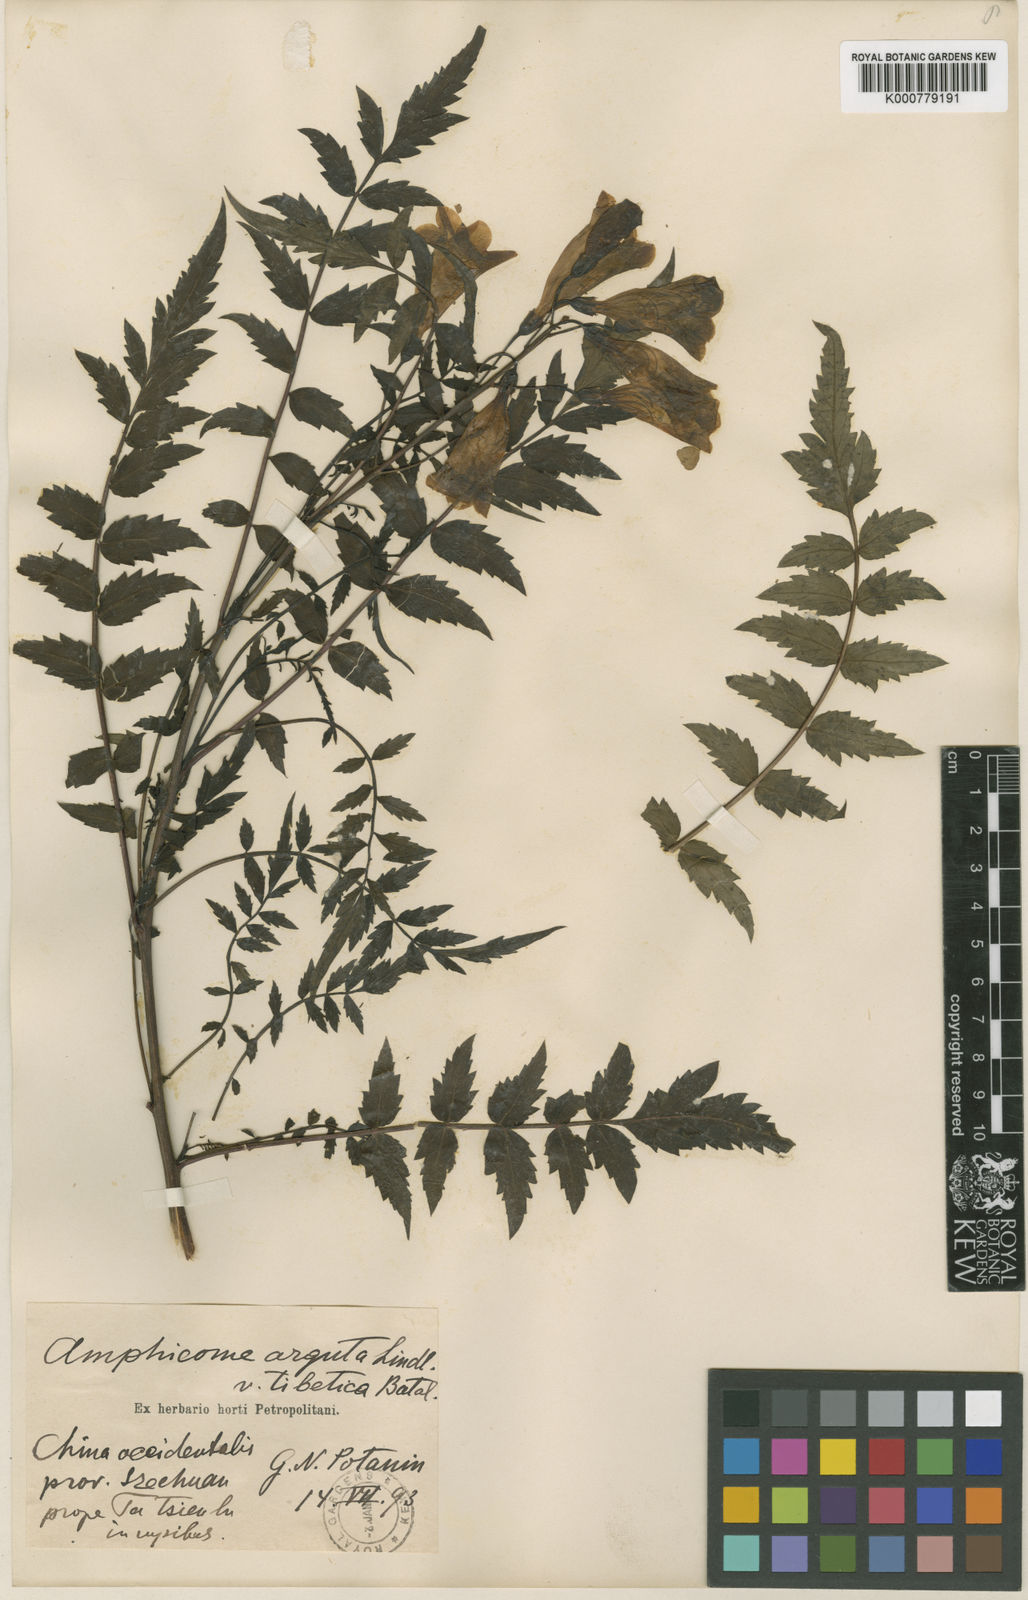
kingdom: Plantae
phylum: Tracheophyta
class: Magnoliopsida
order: Lamiales
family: Bignoniaceae
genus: Incarvillea
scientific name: Incarvillea diffusa
